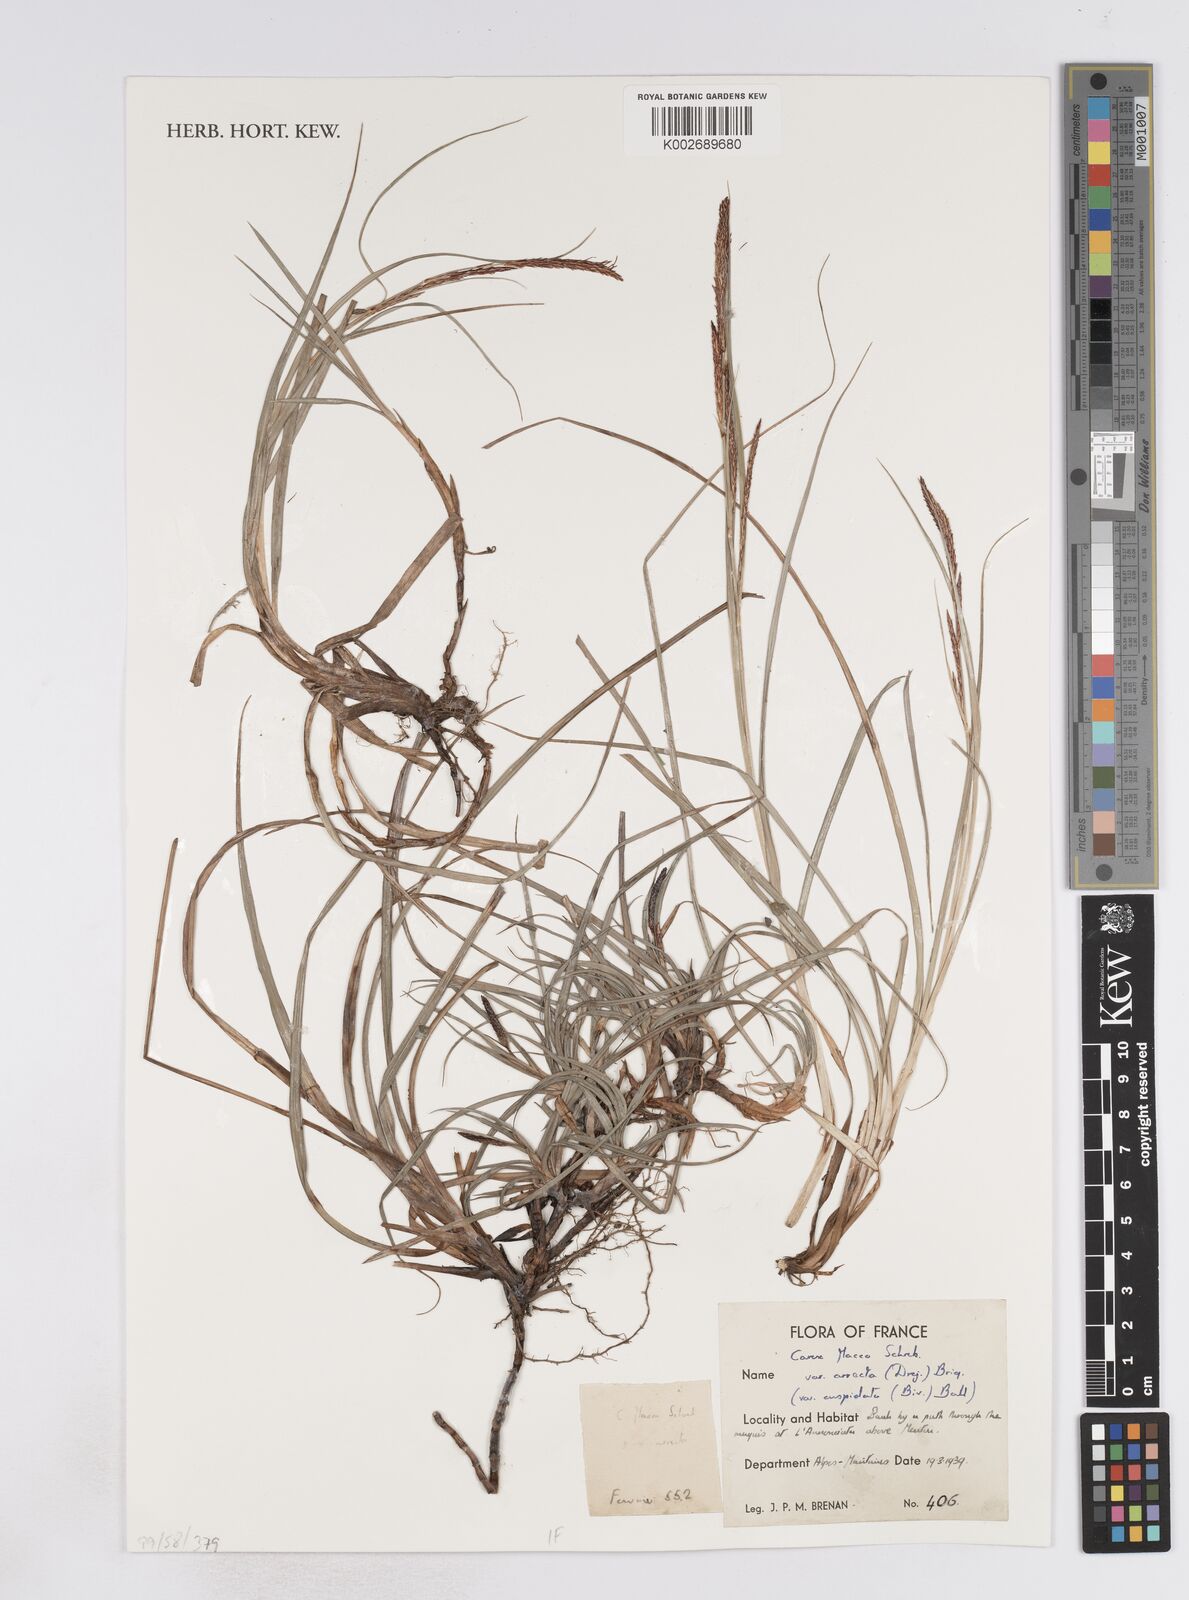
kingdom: Plantae
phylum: Tracheophyta
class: Liliopsida
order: Poales
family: Cyperaceae
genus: Carex
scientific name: Carex flacca
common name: Glaucous sedge
